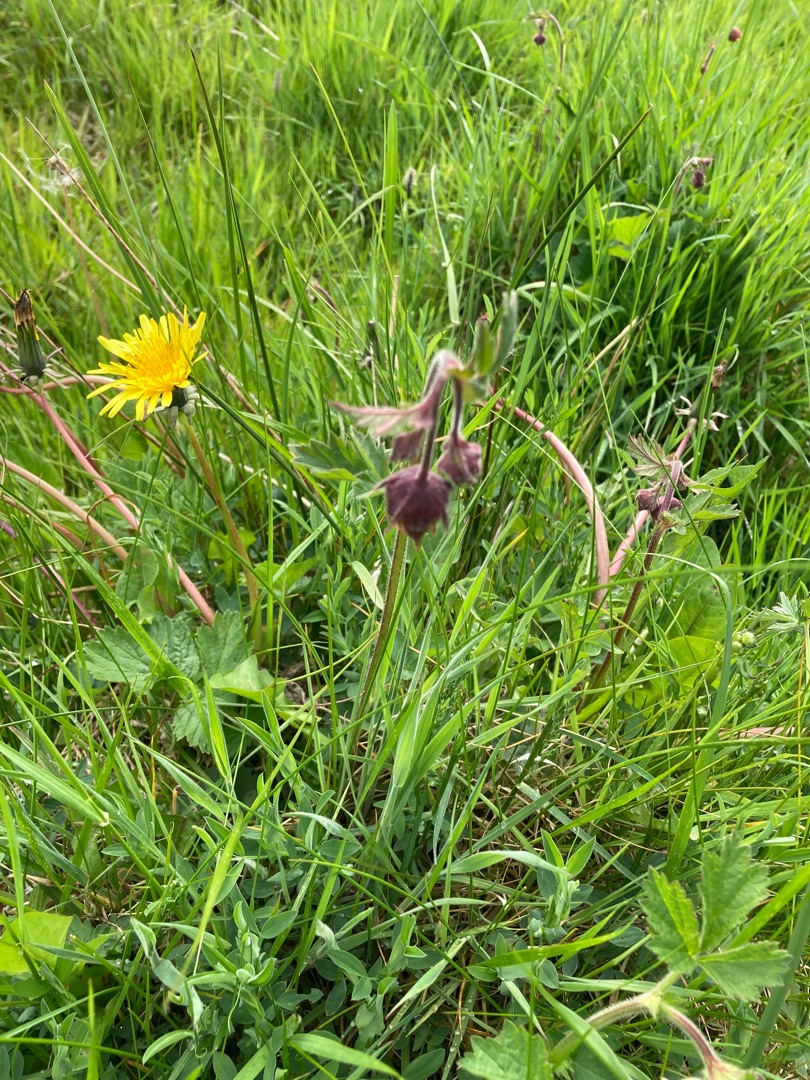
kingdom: Plantae
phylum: Tracheophyta
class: Magnoliopsida
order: Rosales
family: Rosaceae
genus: Geum
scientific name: Geum rivale
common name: Eng-nellikerod
